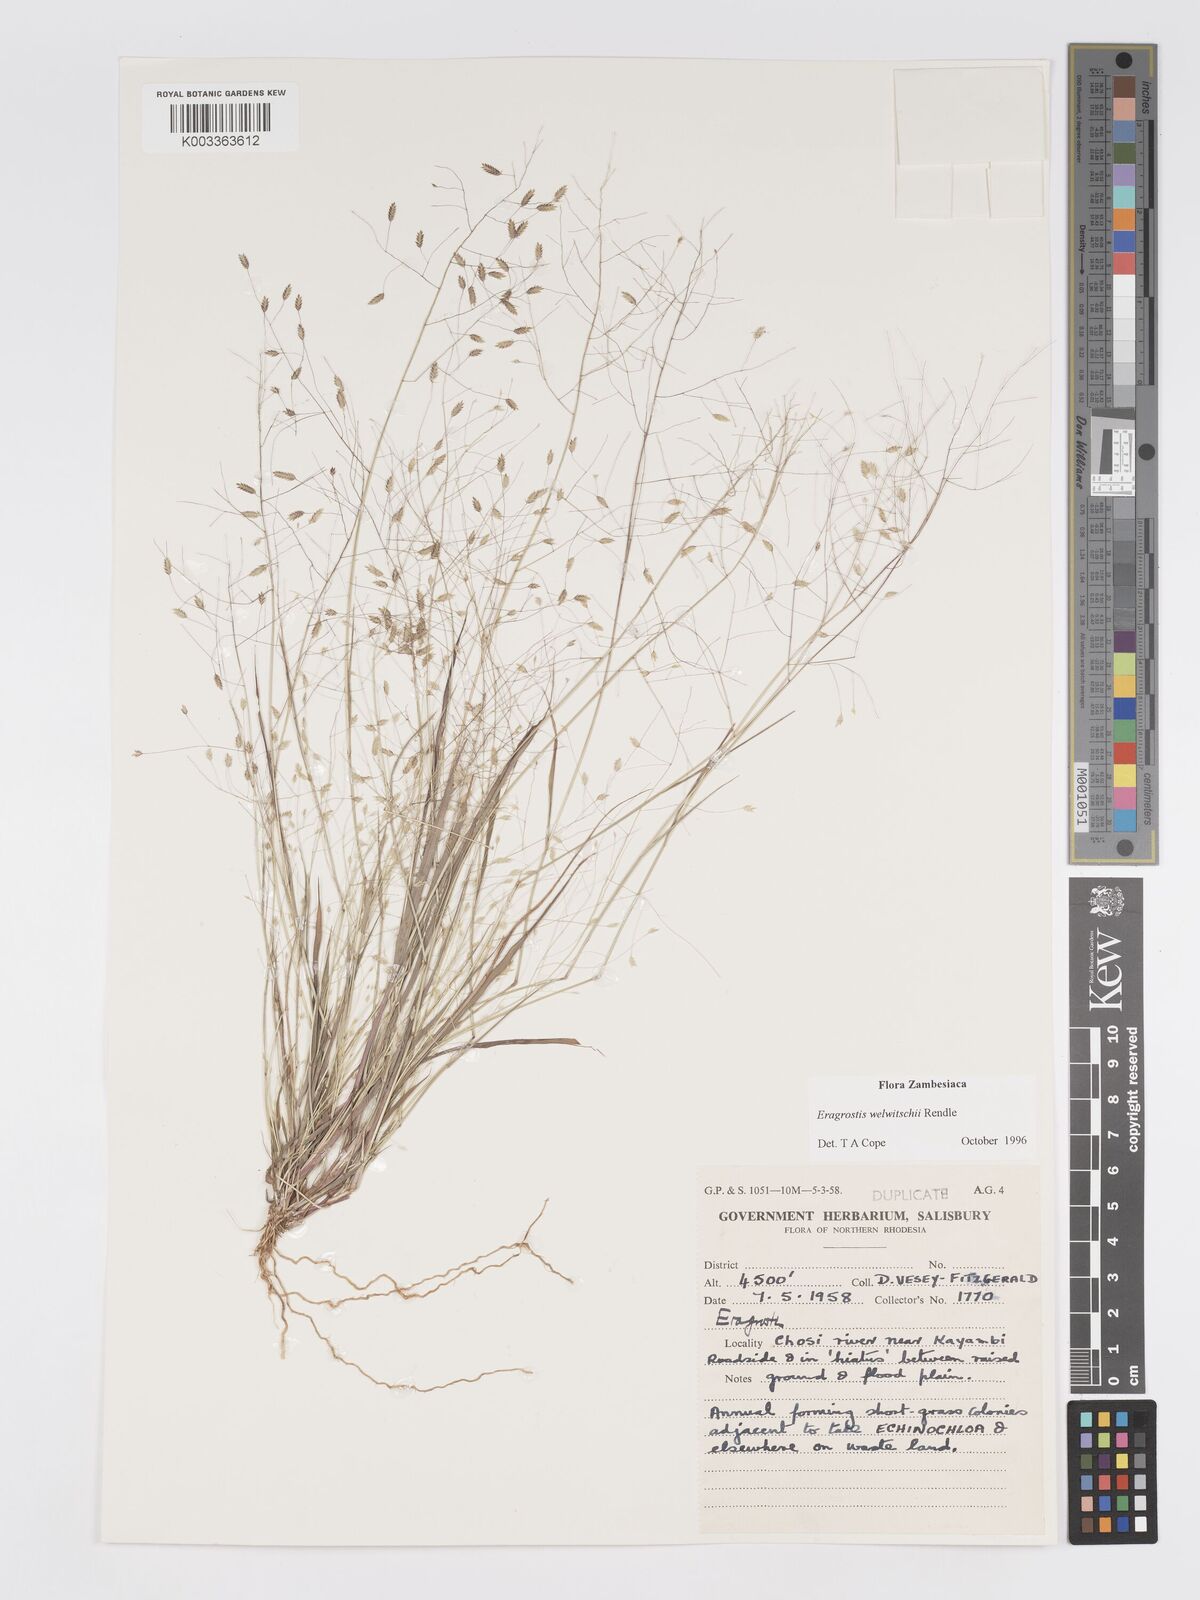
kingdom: Plantae
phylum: Tracheophyta
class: Liliopsida
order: Poales
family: Poaceae
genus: Eragrostis
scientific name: Eragrostis welwitschii
